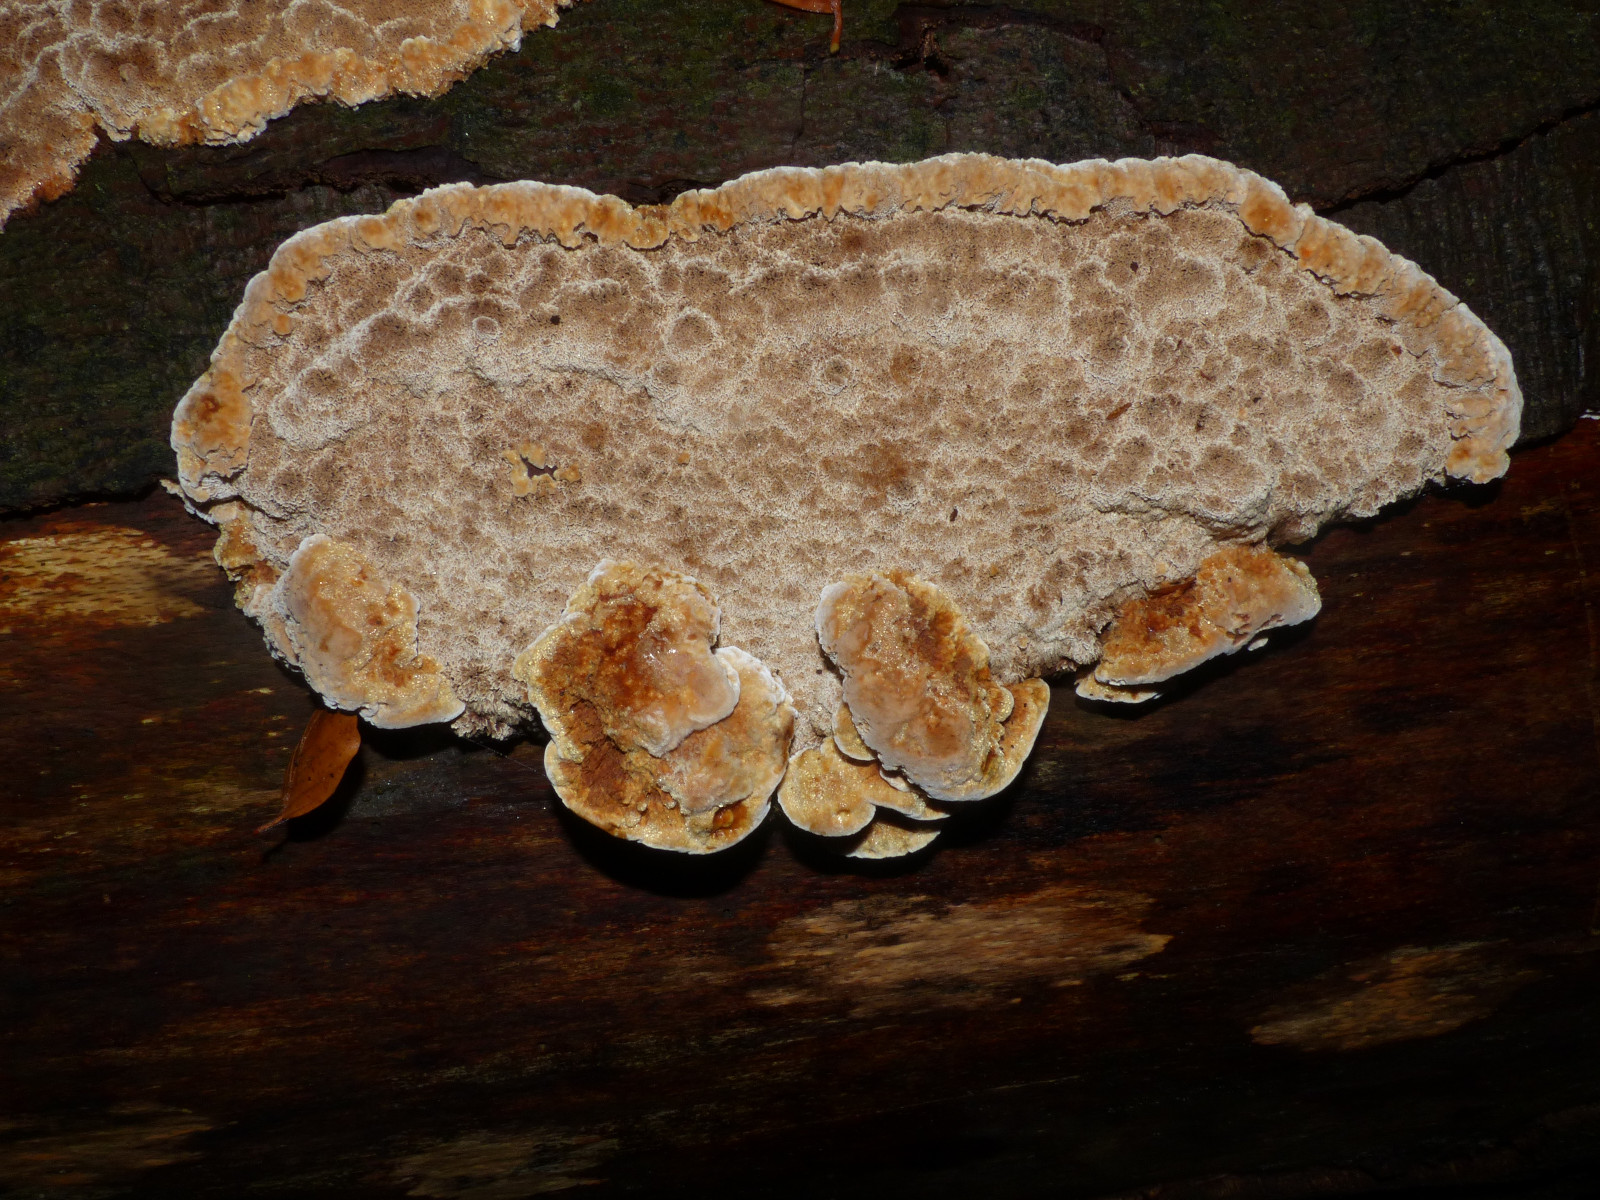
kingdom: Fungi
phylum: Basidiomycota
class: Agaricomycetes
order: Hymenochaetales
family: Hymenochaetaceae
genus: Mensularia
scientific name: Mensularia nodulosa
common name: bøge-spejlporesvamp
